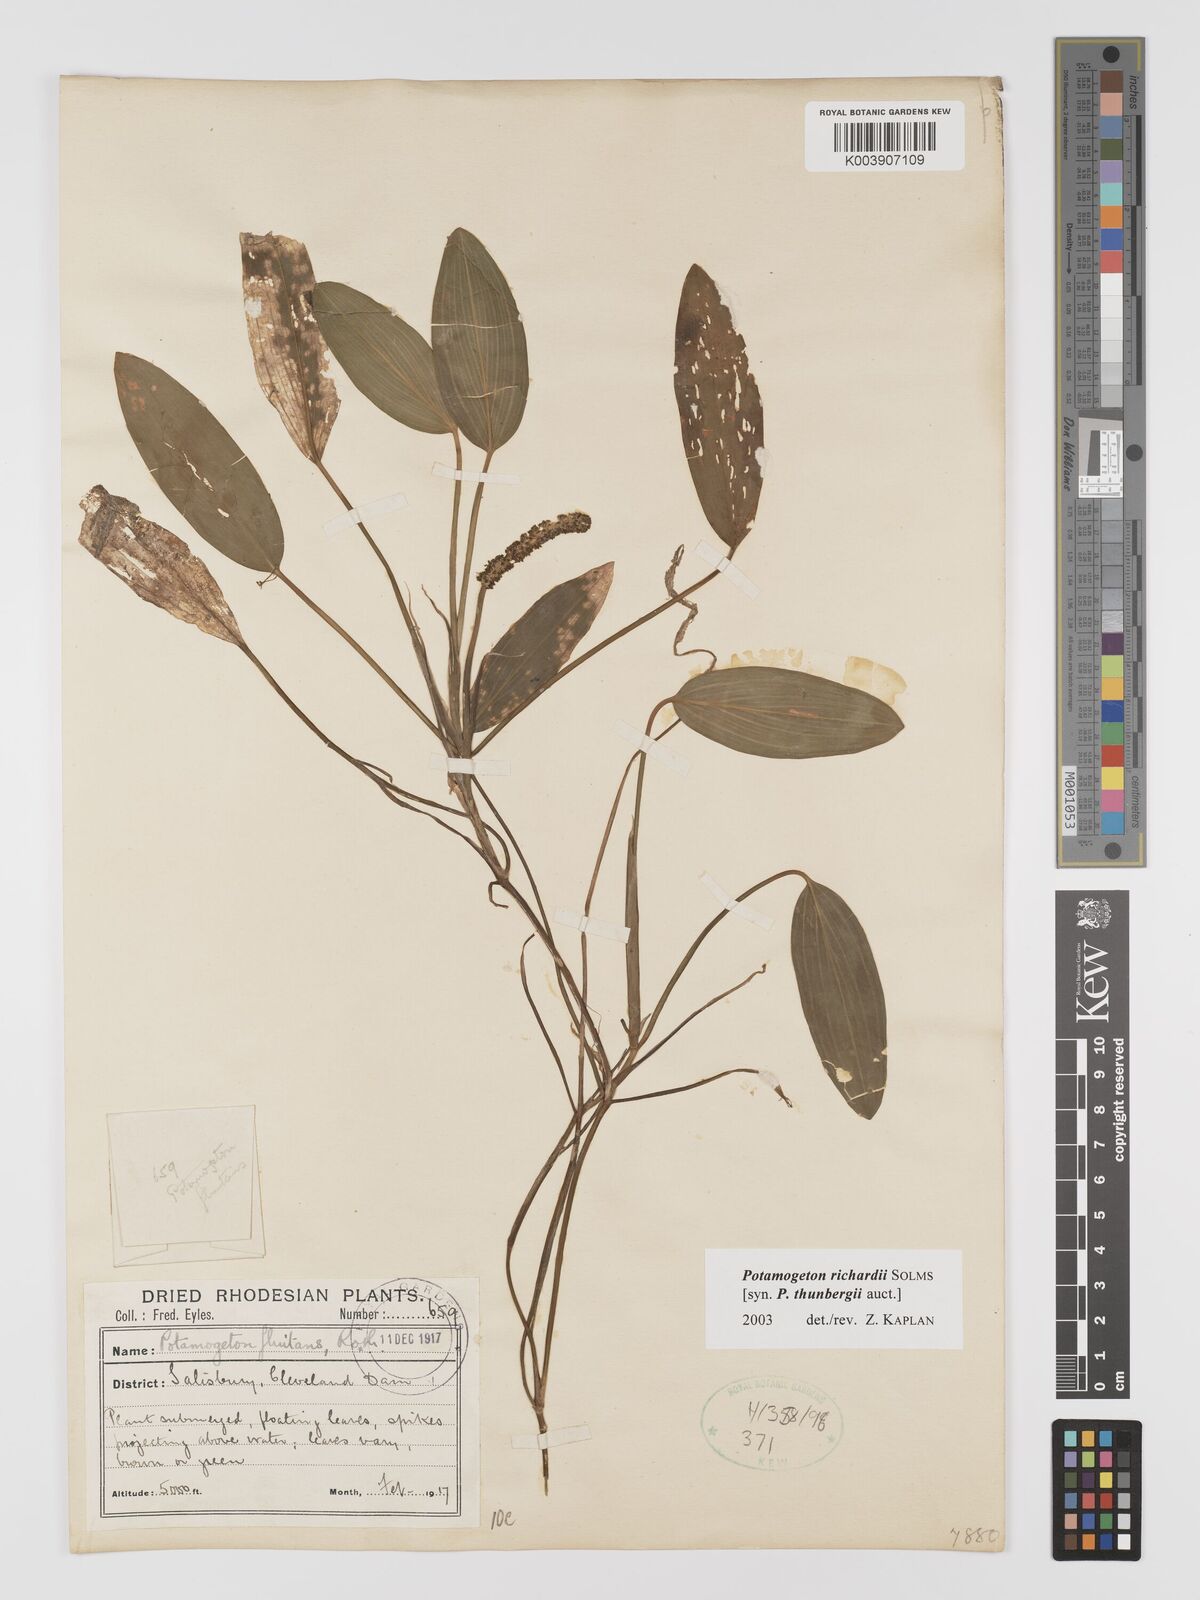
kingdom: Plantae
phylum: Tracheophyta
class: Liliopsida
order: Alismatales
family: Potamogetonaceae
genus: Potamogeton
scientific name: Potamogeton richardii
